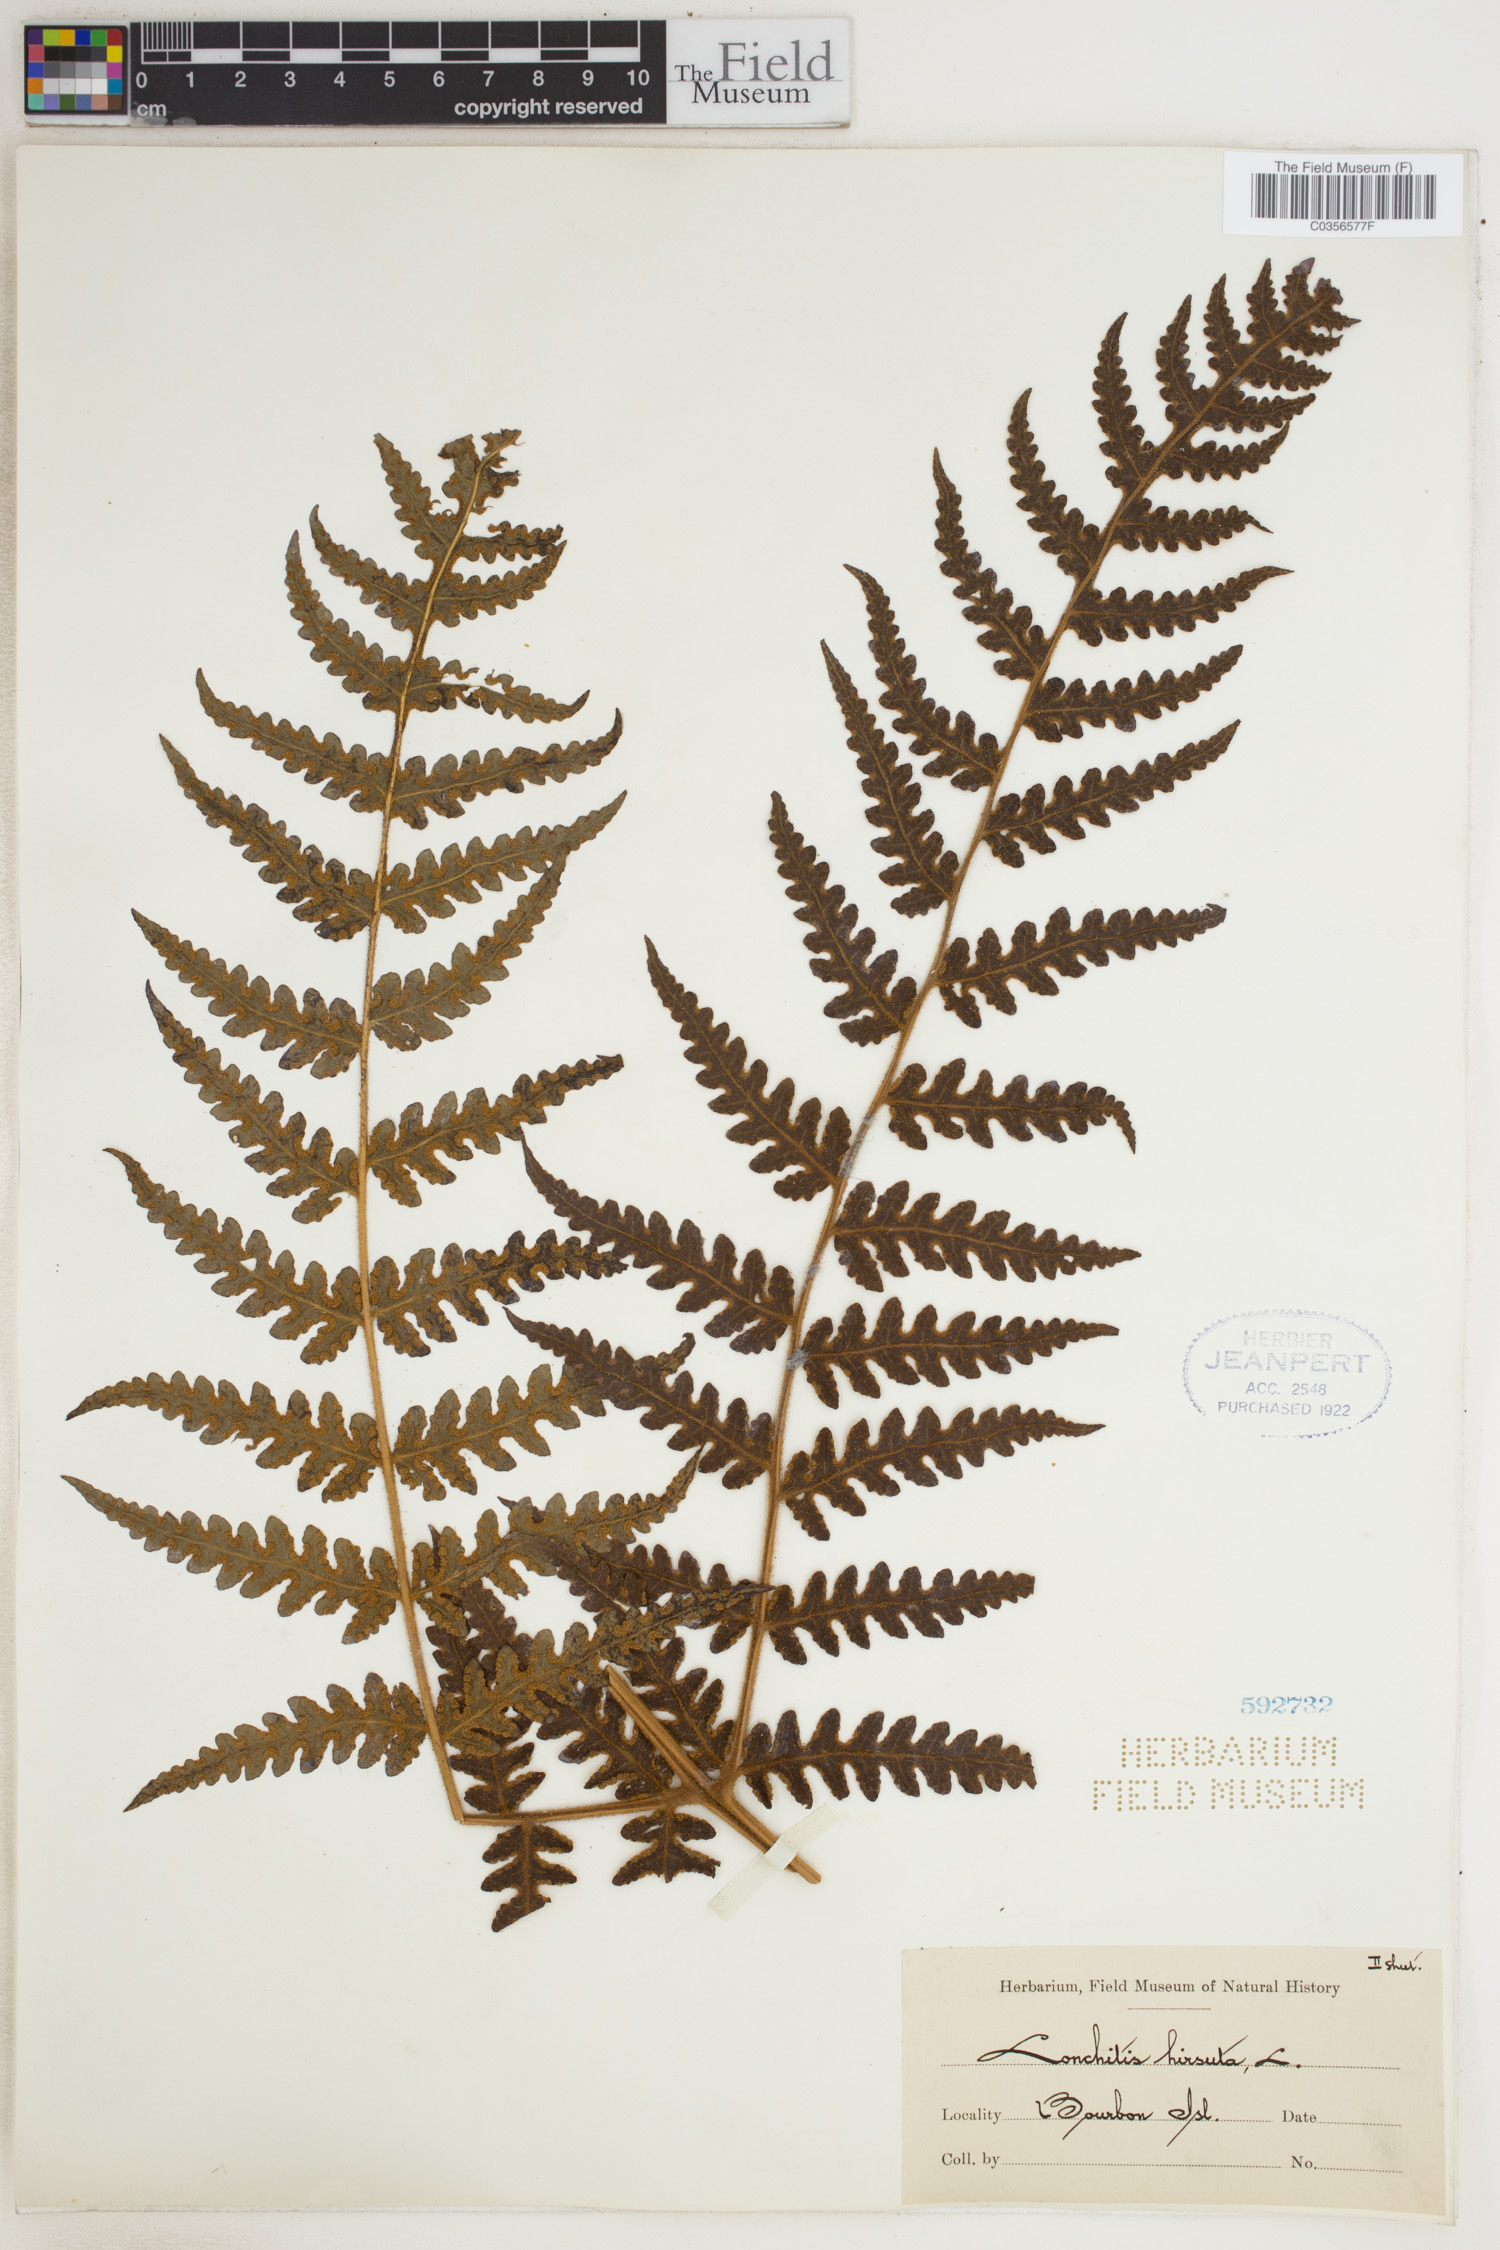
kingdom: Plantae
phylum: Tracheophyta
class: Polypodiopsida
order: Polypodiales
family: Lonchitidaceae
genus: Lonchitis
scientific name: Lonchitis hirsuta
